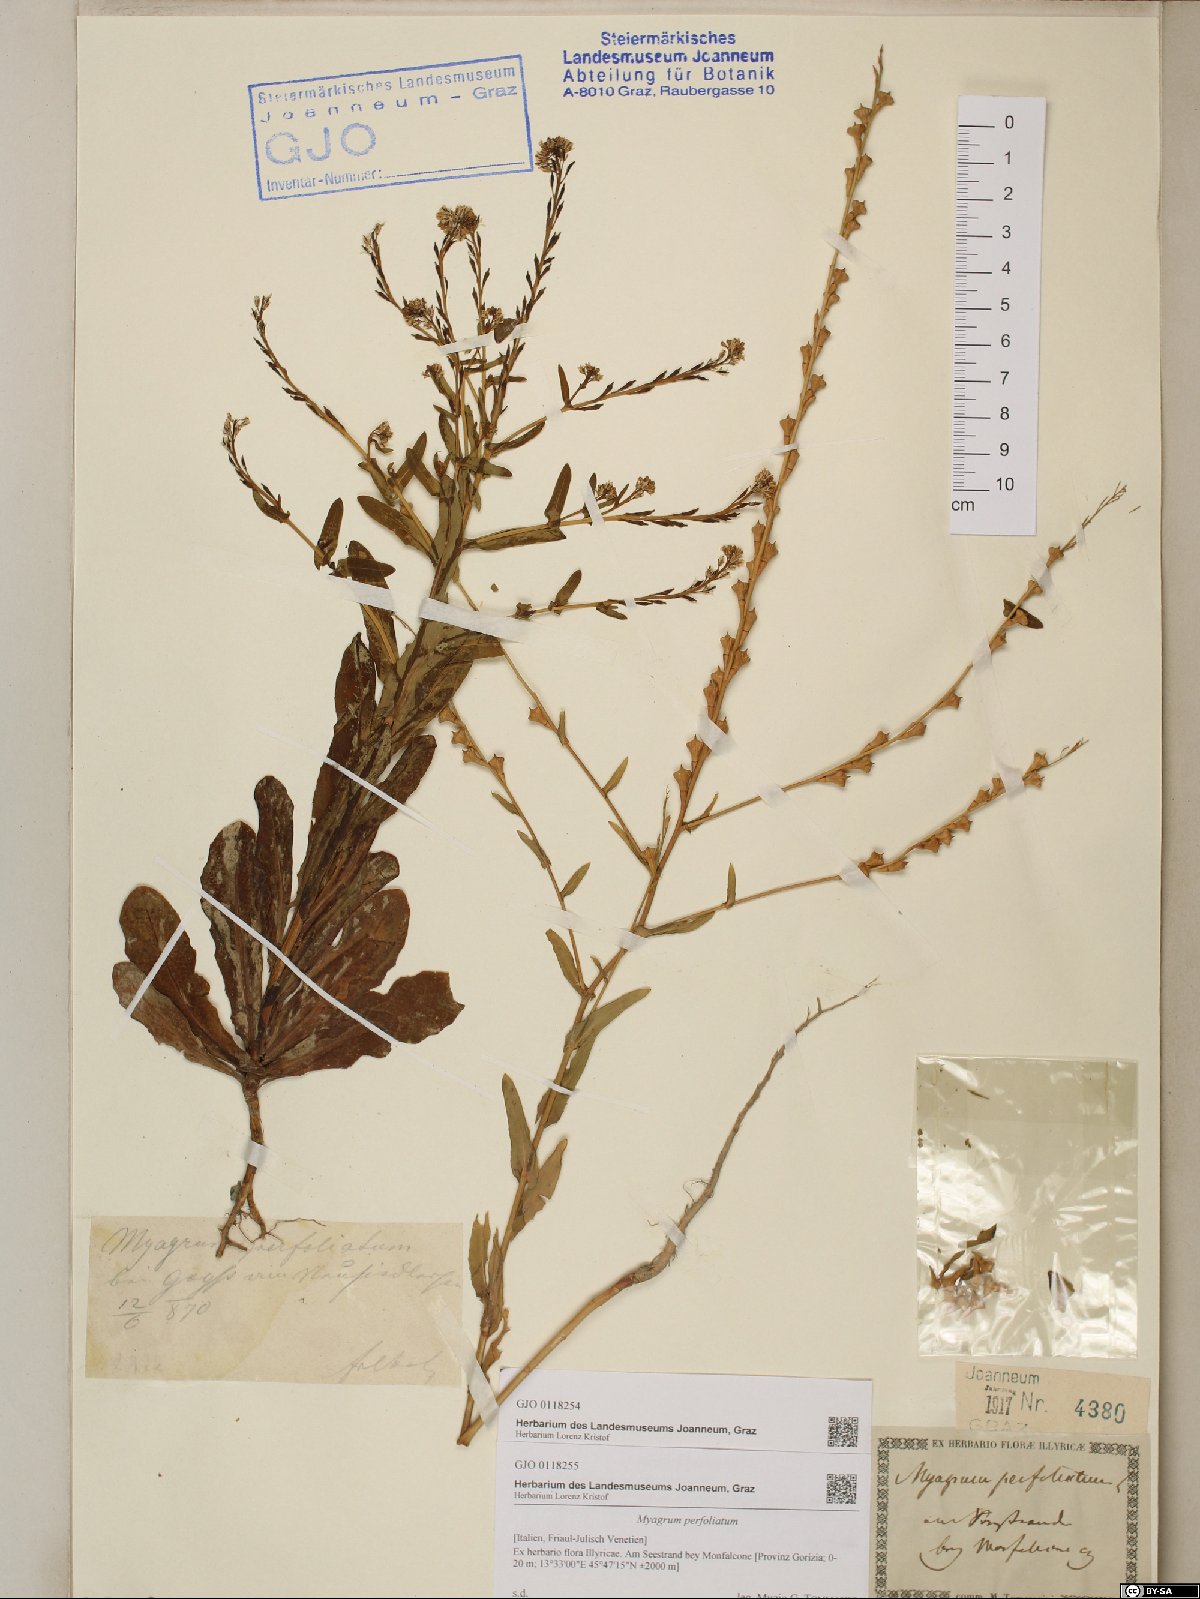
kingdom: Plantae
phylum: Tracheophyta
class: Magnoliopsida
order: Brassicales
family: Brassicaceae
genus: Myagrum
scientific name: Myagrum perfoliatum
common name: Mitre cress
